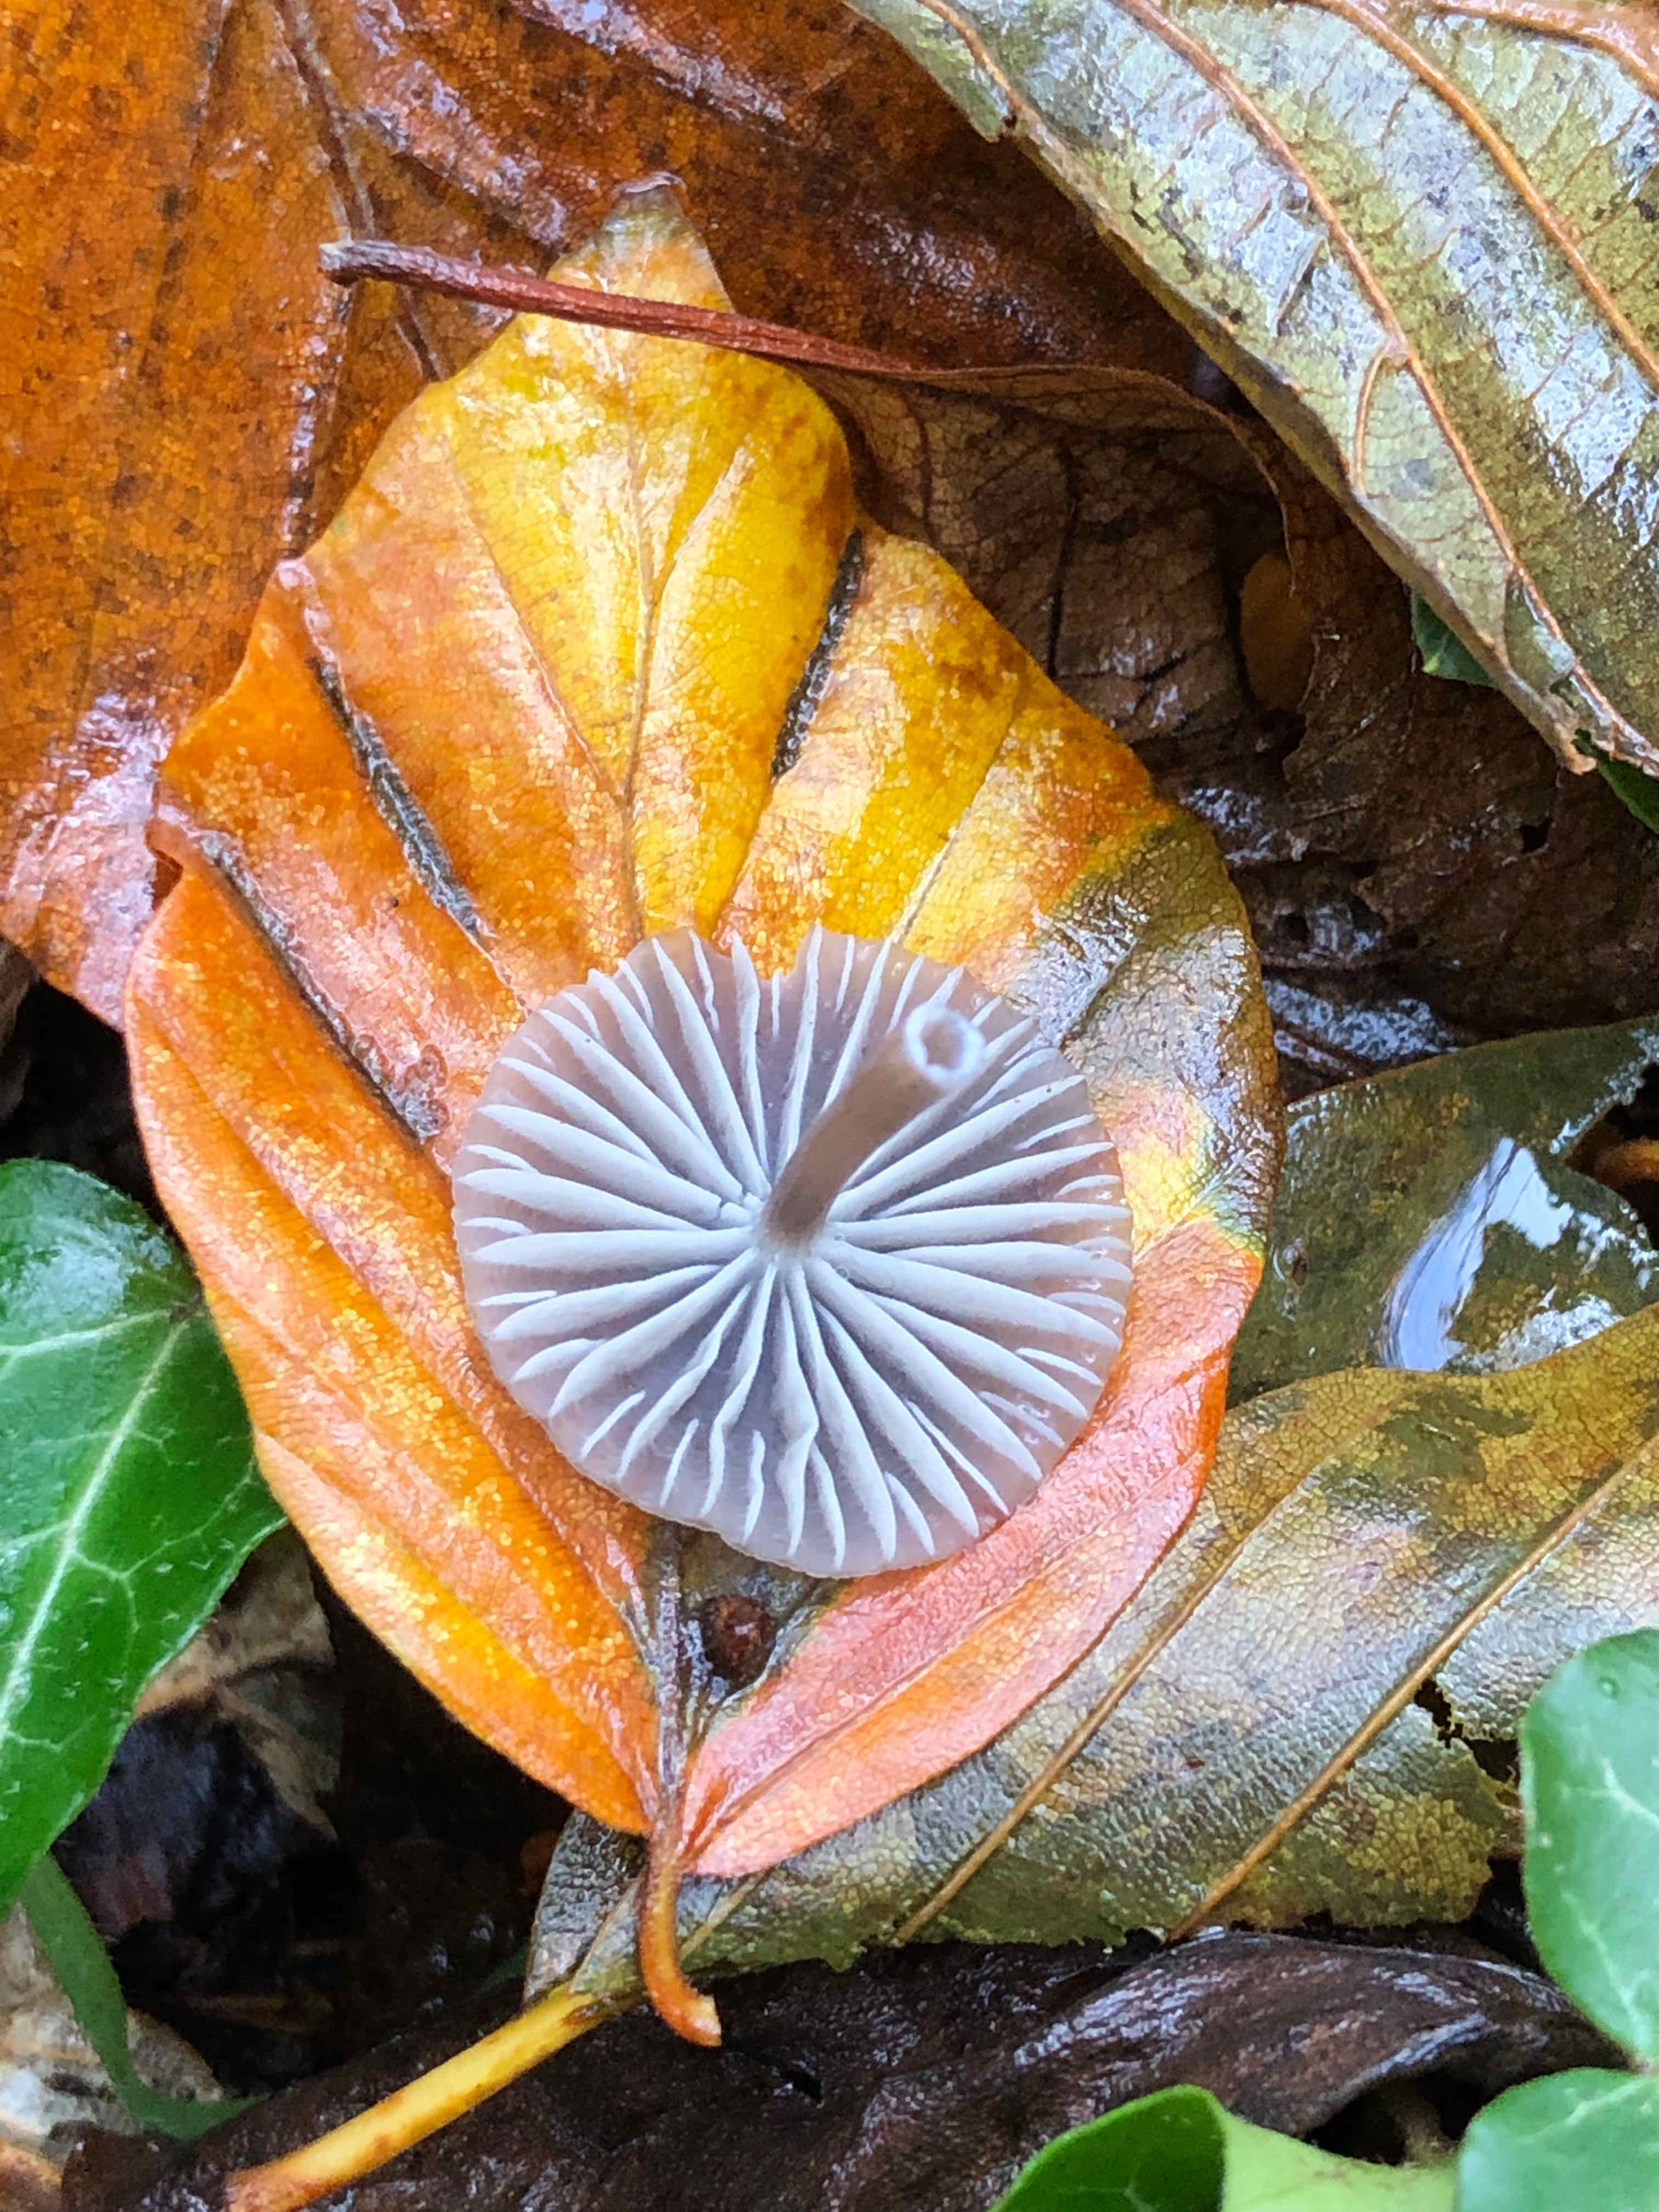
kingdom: Fungi
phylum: Basidiomycota
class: Agaricomycetes
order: Agaricales
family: Mycenaceae
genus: Mycena
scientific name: Mycena galopus
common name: hvidmælket huesvamp
